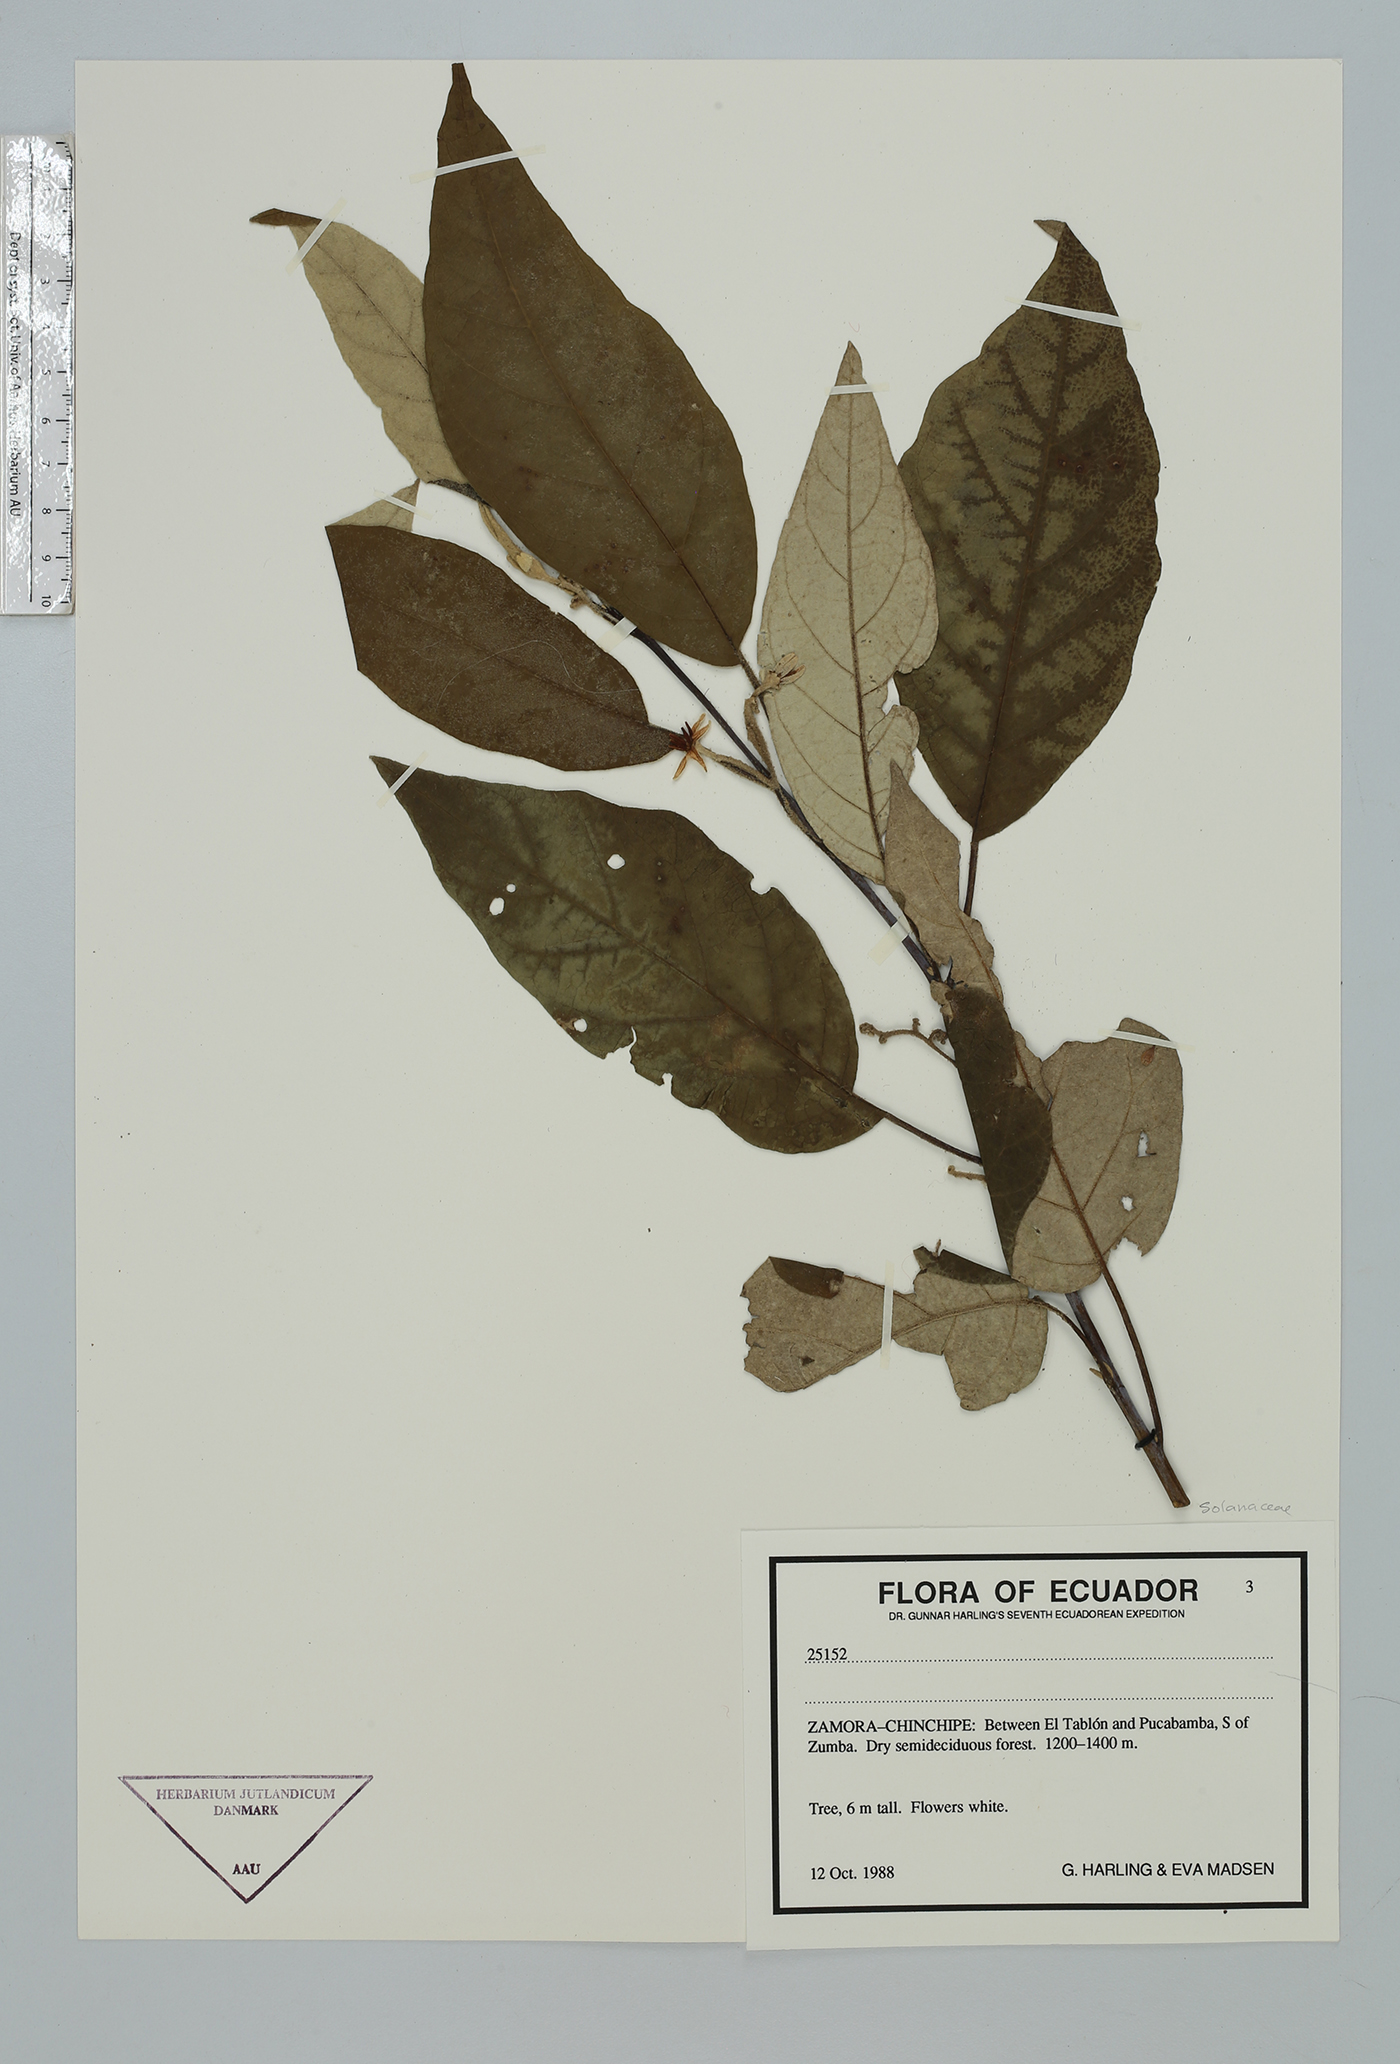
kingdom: Plantae
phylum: Tracheophyta
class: Magnoliopsida
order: Solanales
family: Solanaceae
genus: Solanum
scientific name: Solanum
